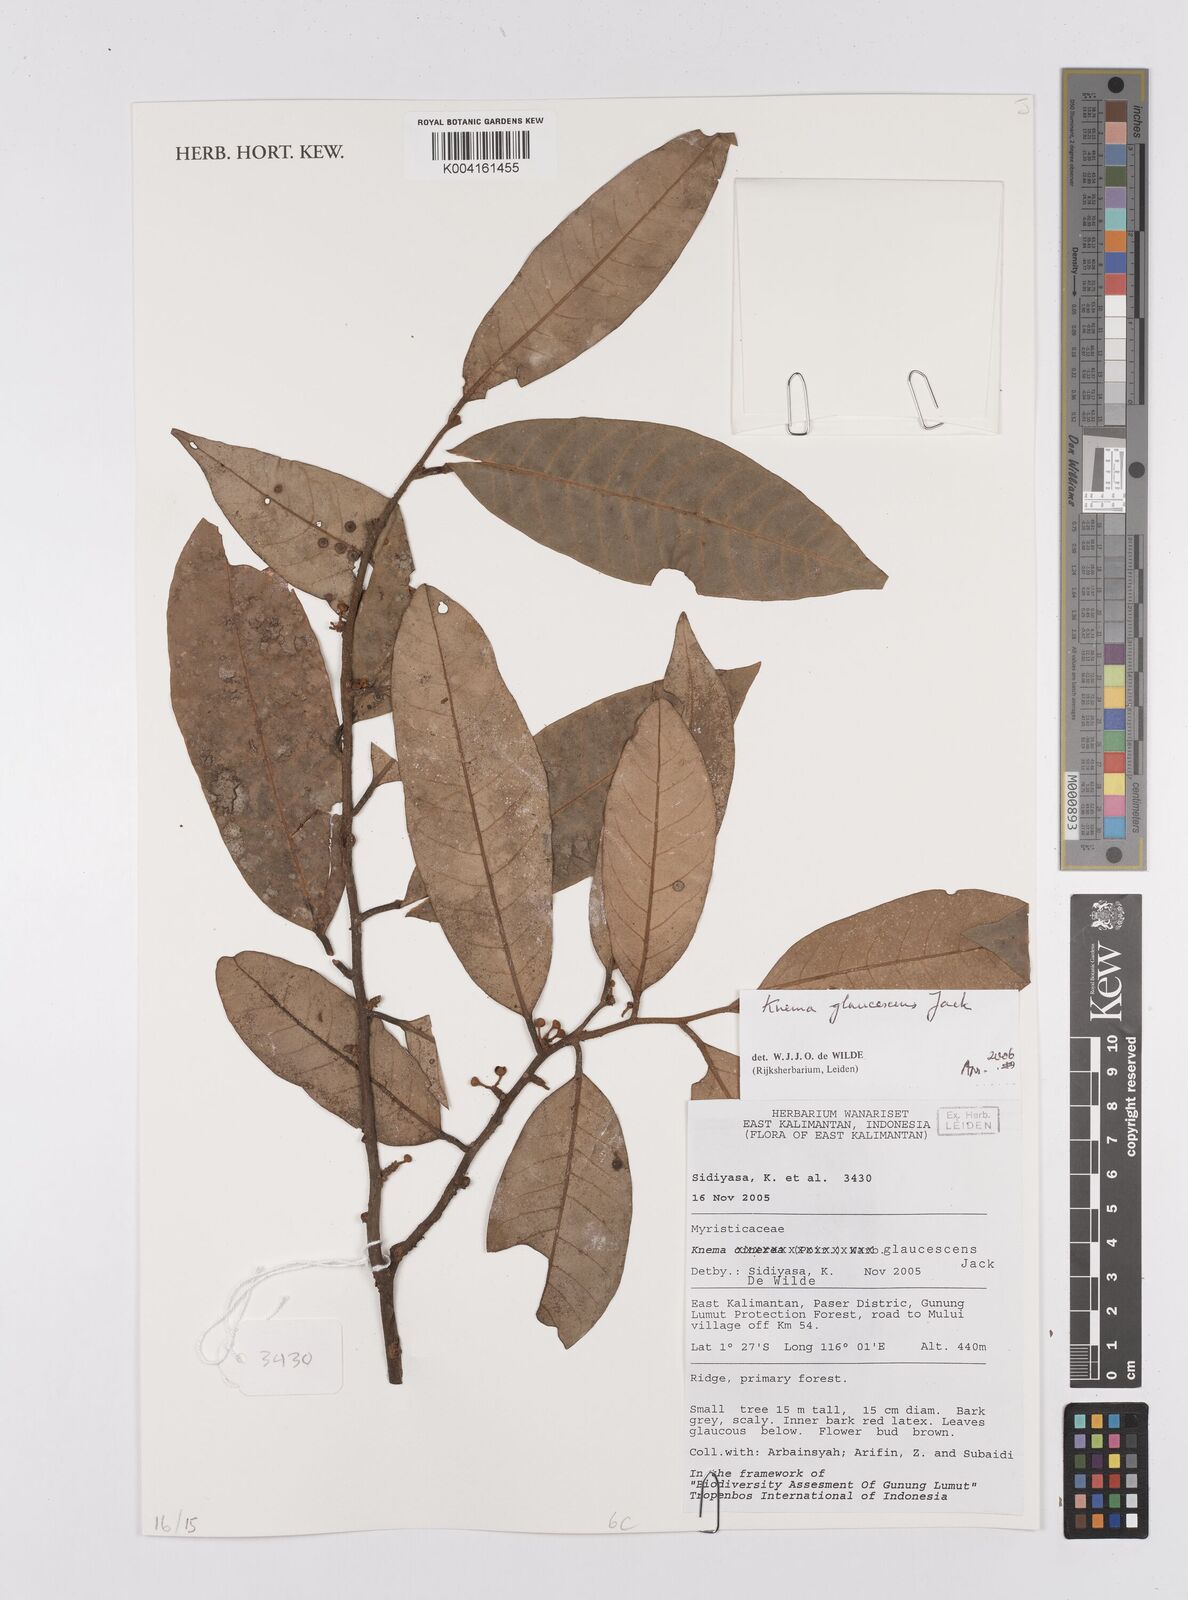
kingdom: Plantae
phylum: Tracheophyta
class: Magnoliopsida
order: Magnoliales
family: Myristicaceae
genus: Knema
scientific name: Knema
